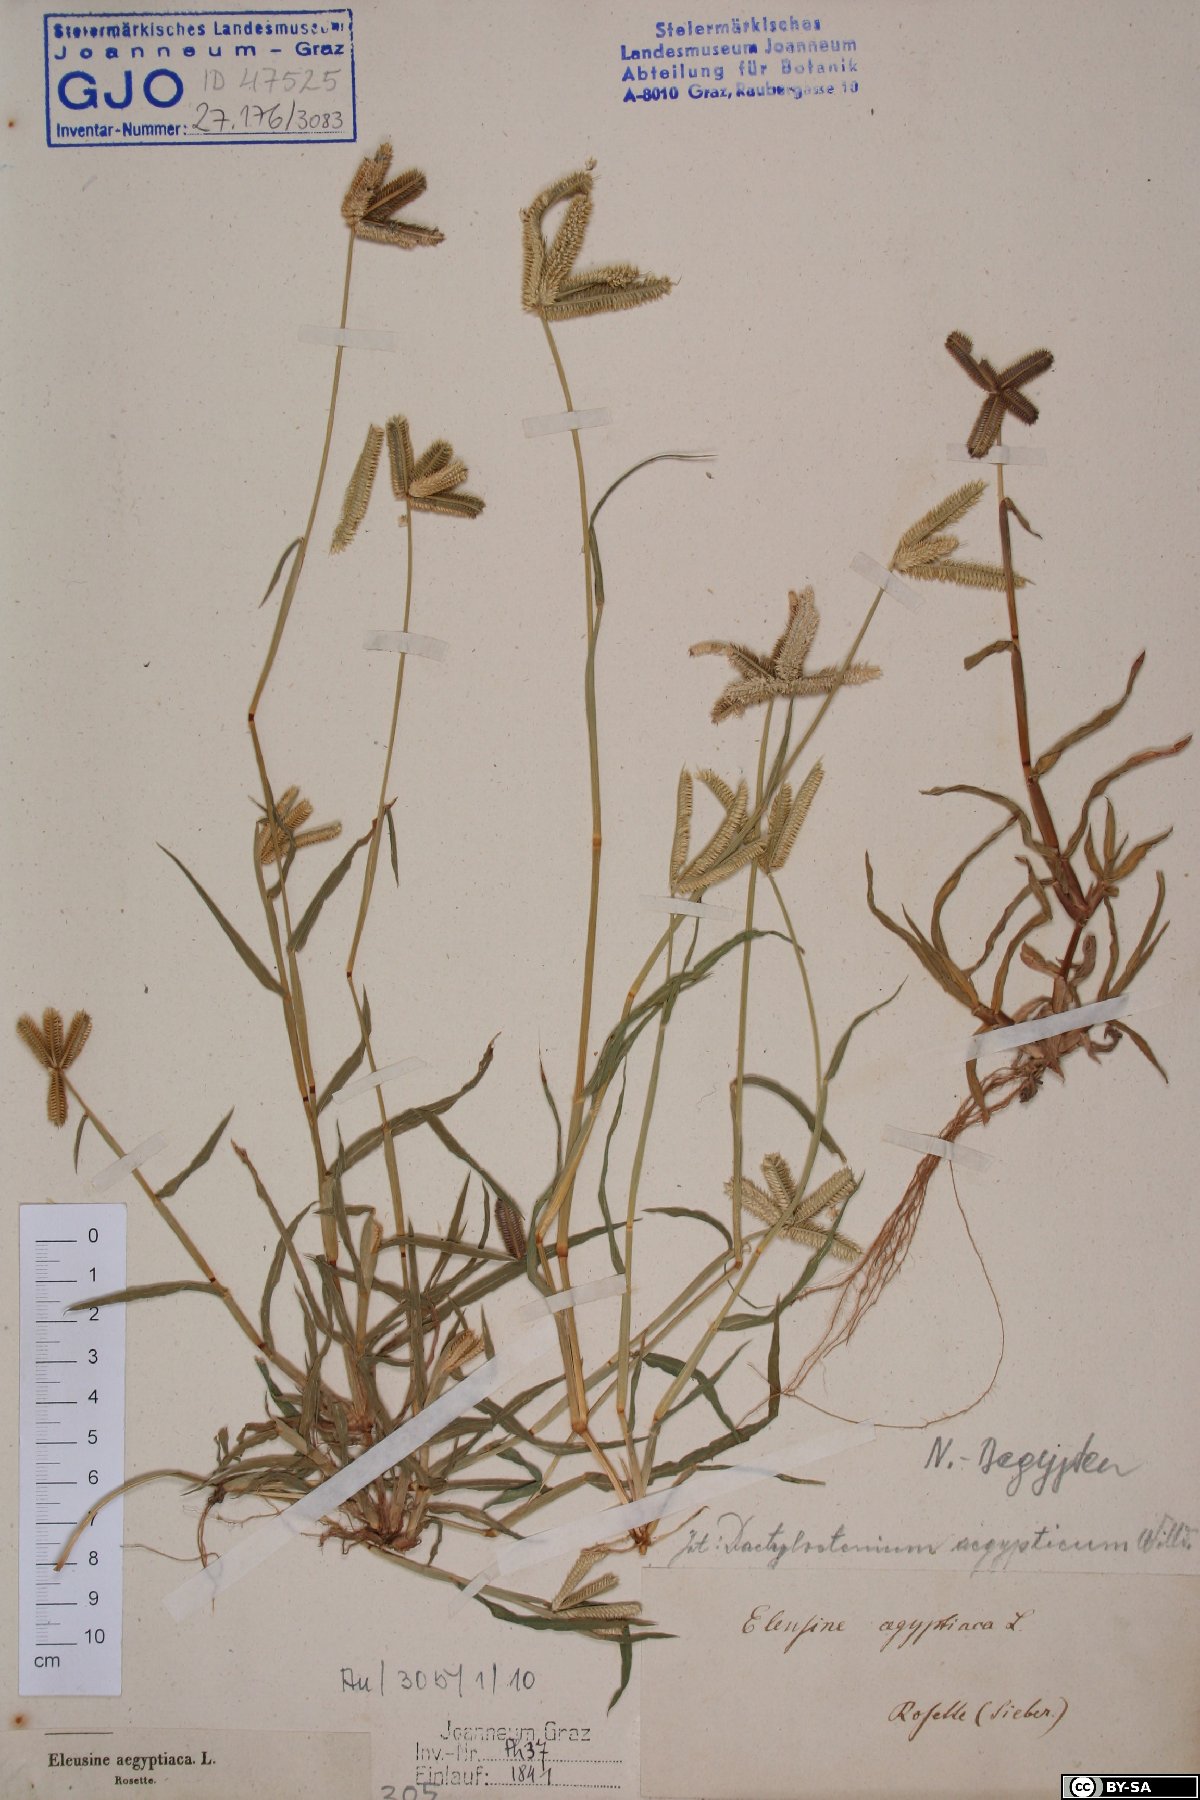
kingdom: Plantae
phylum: Tracheophyta
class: Liliopsida
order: Poales
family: Poaceae
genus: Dactyloctenium
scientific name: Dactyloctenium aegyptium
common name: Egyptian grass
